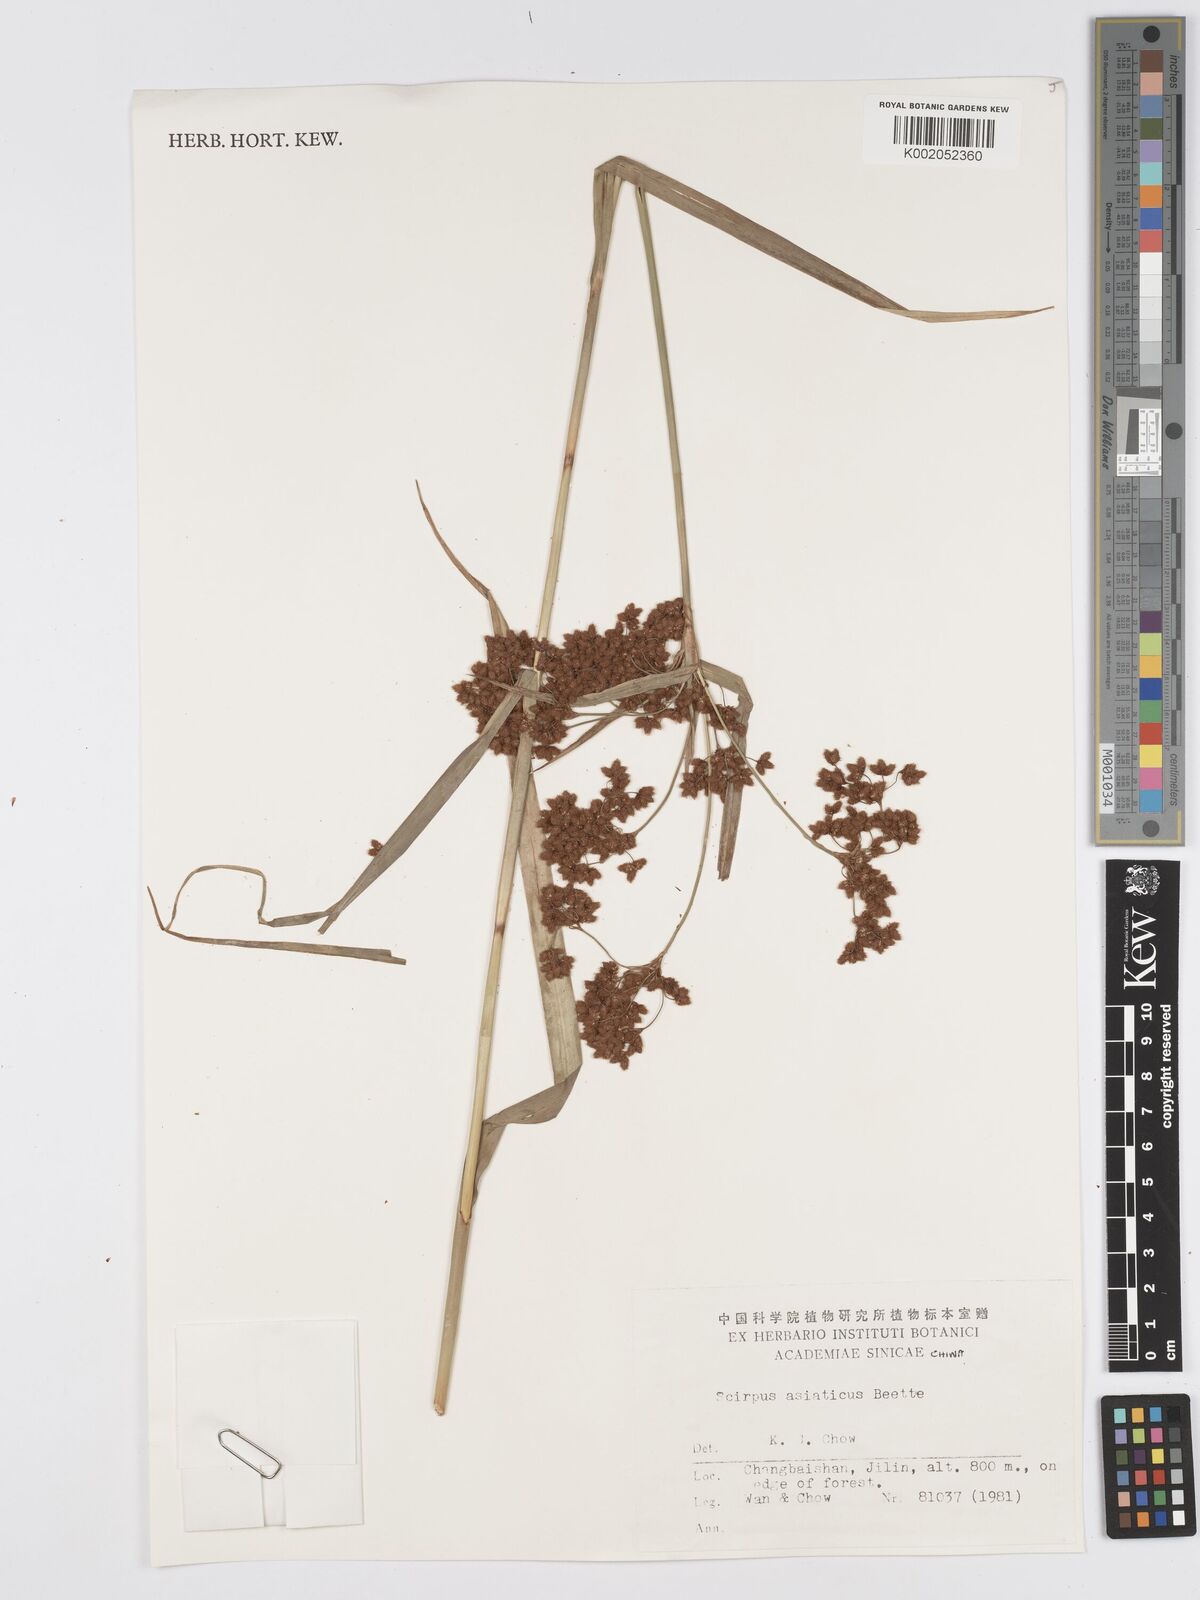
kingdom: Plantae
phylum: Tracheophyta
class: Liliopsida
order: Poales
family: Cyperaceae
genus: Scirpus
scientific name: Scirpus lineatus
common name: Drooping bulrush
